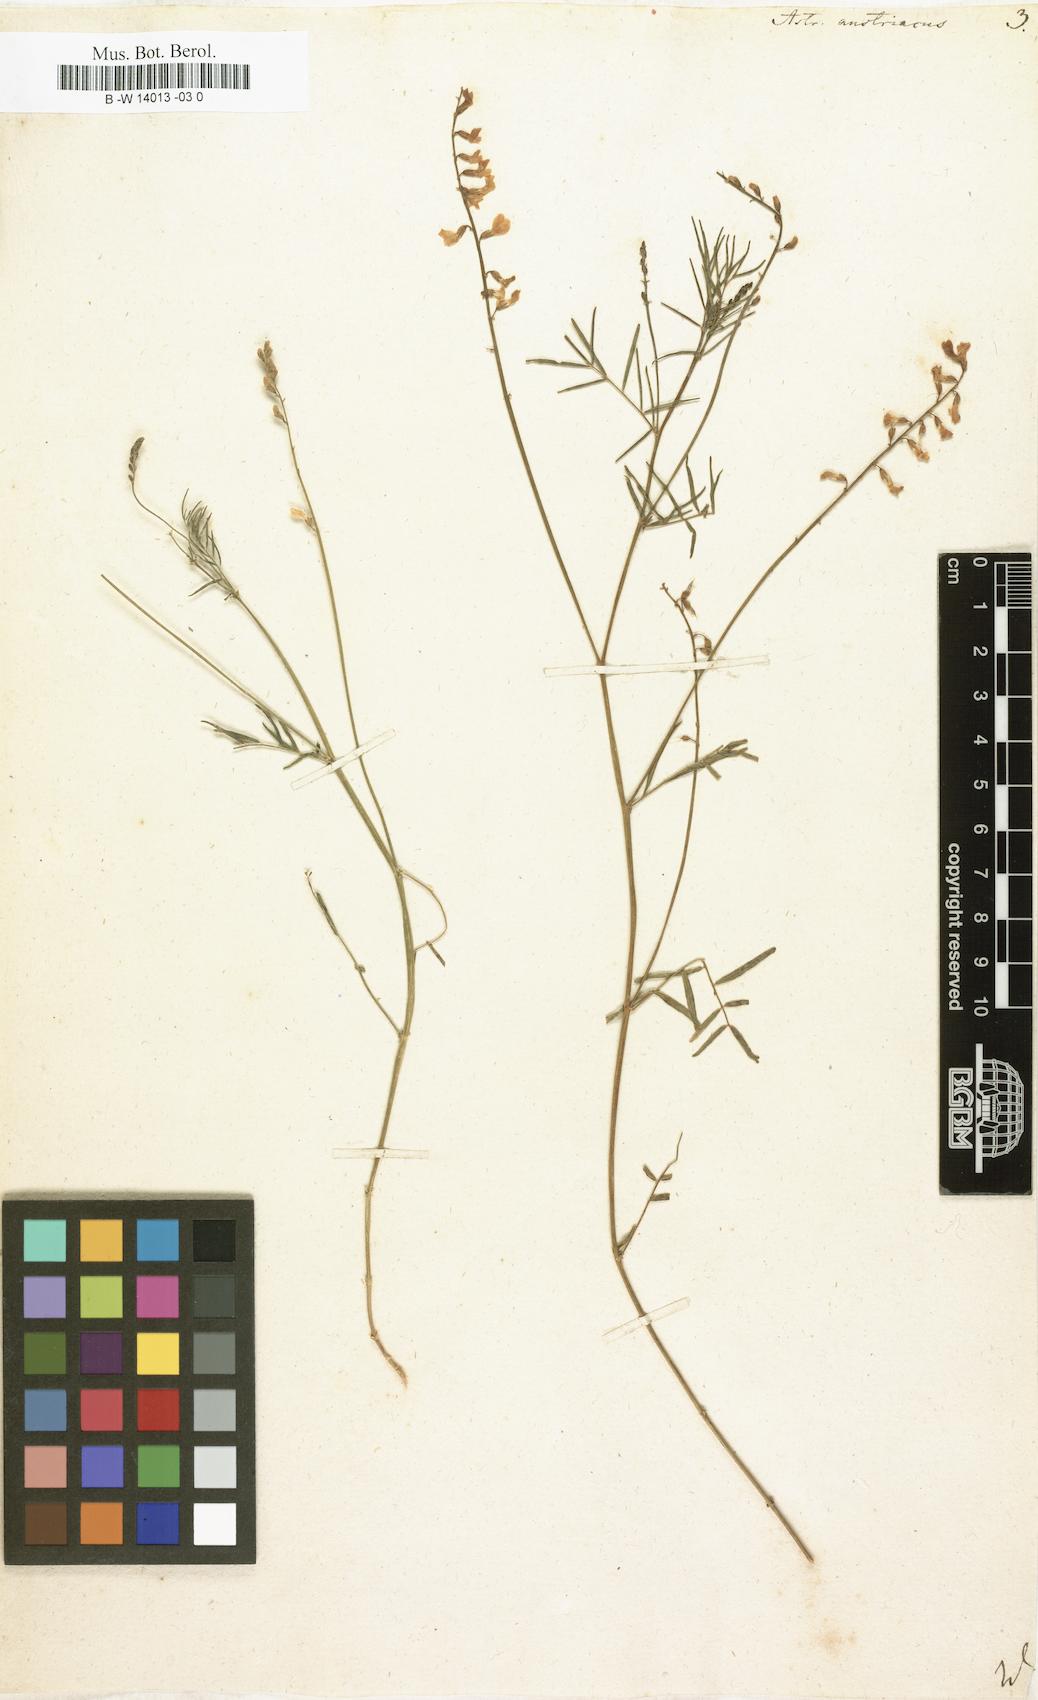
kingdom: Plantae
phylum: Tracheophyta
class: Magnoliopsida
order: Fabales
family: Fabaceae
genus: Astragalus
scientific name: Astragalus austriacus
